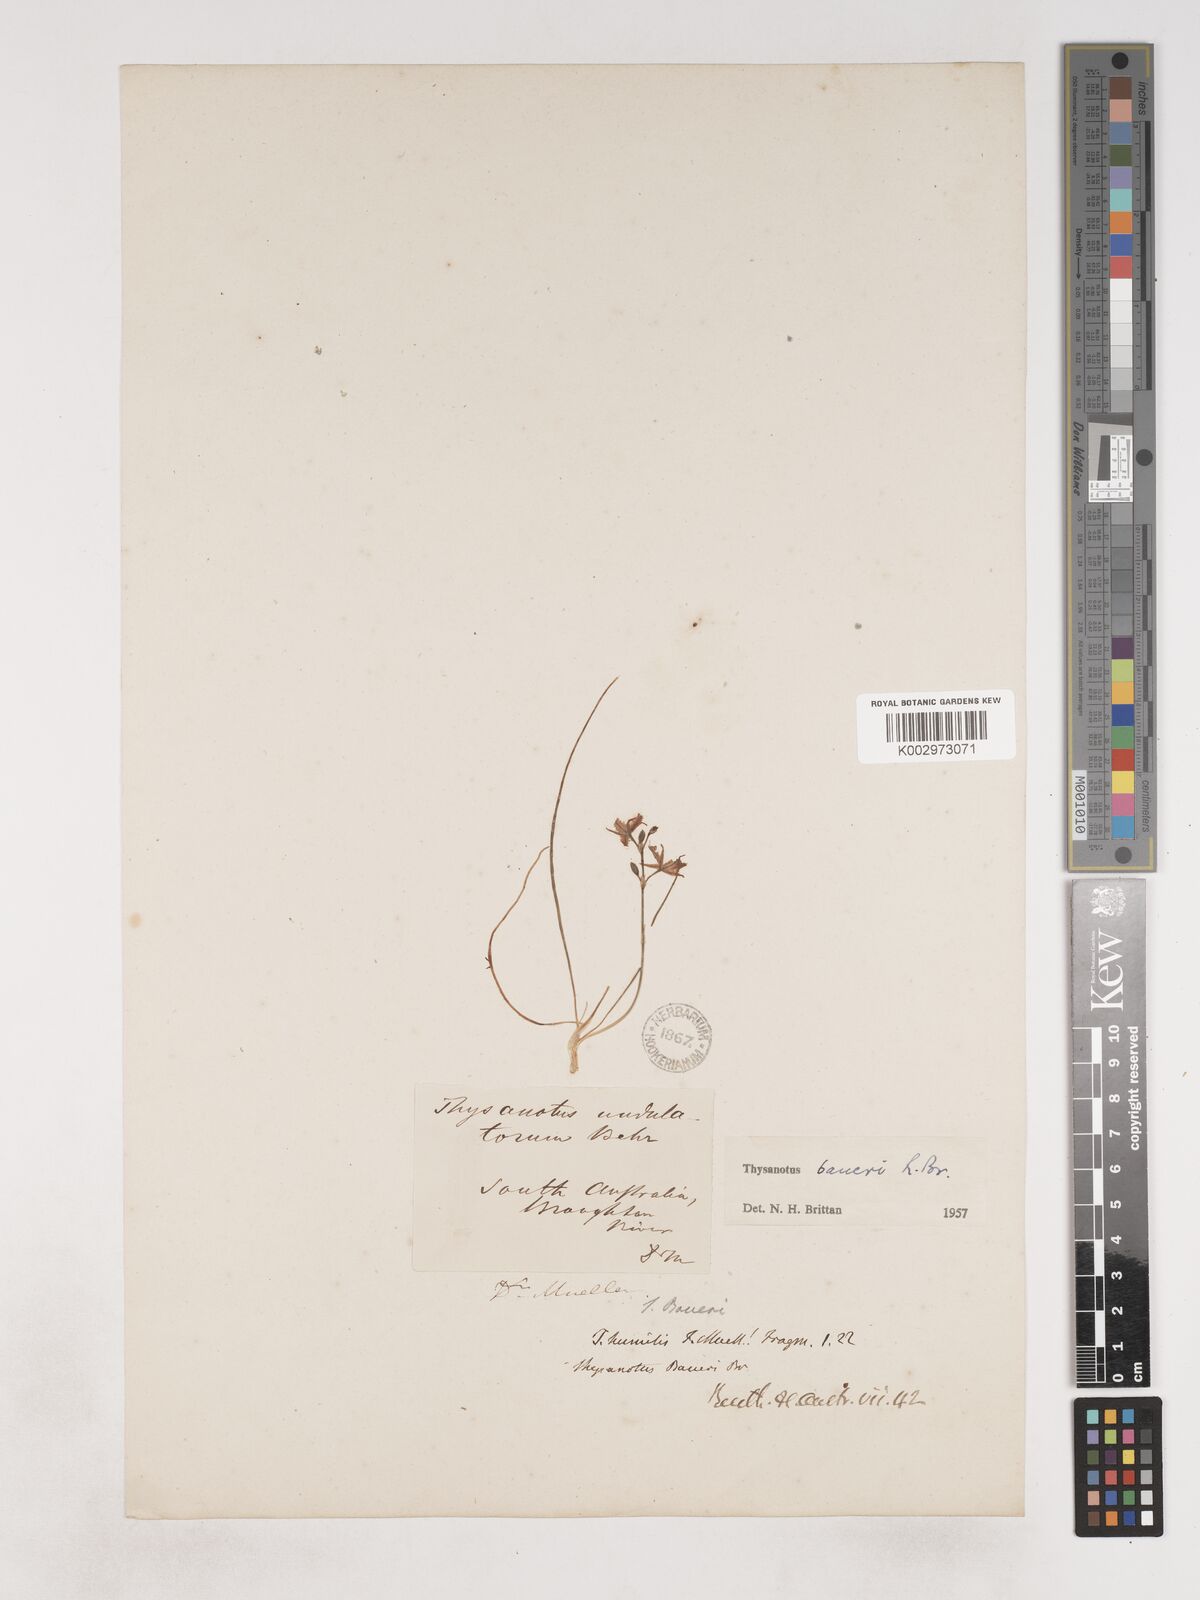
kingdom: Plantae
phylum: Tracheophyta
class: Liliopsida
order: Asparagales
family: Asparagaceae
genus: Thysanotus
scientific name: Thysanotus baueri
